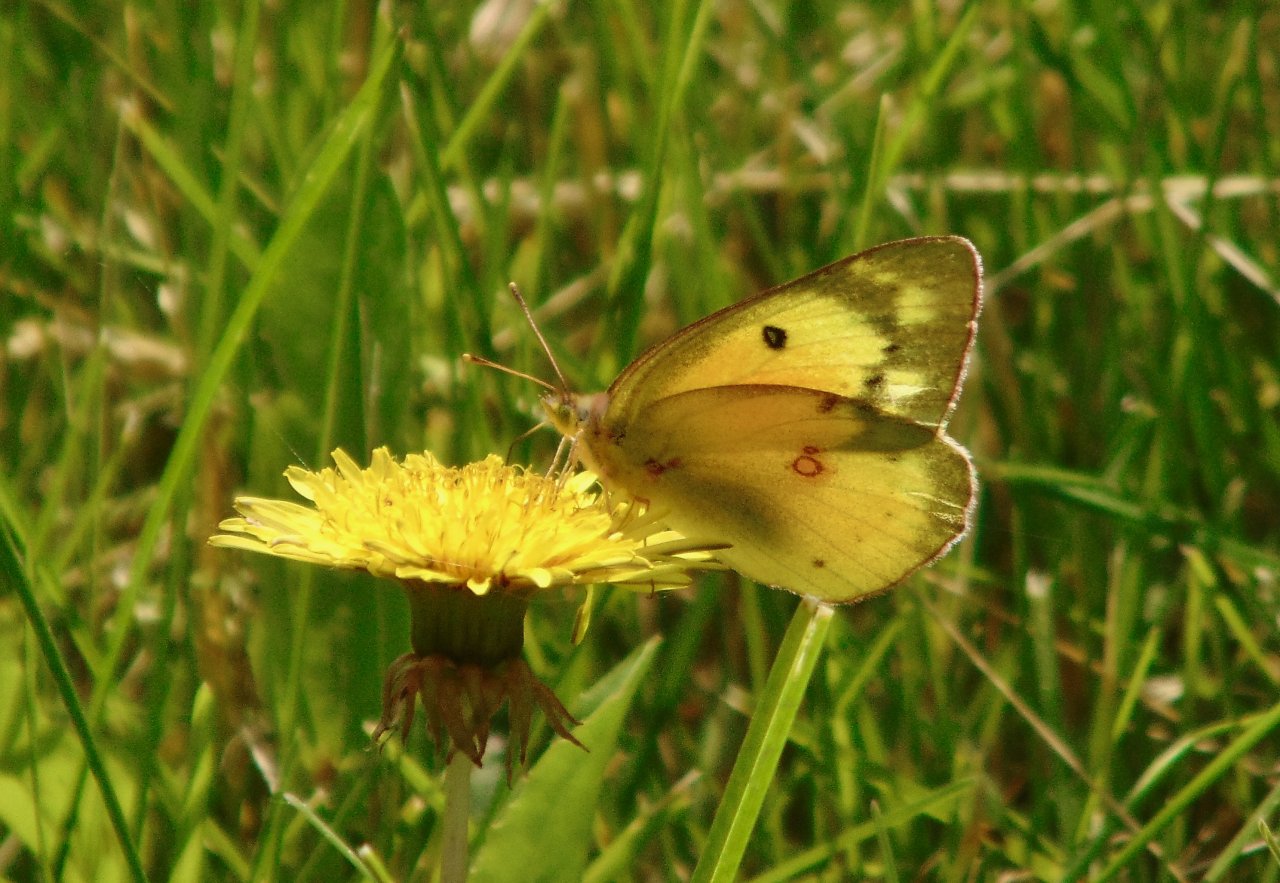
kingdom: Animalia
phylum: Arthropoda
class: Insecta
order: Lepidoptera
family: Pieridae
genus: Colias
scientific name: Colias eurytheme
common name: Orange Sulphur
